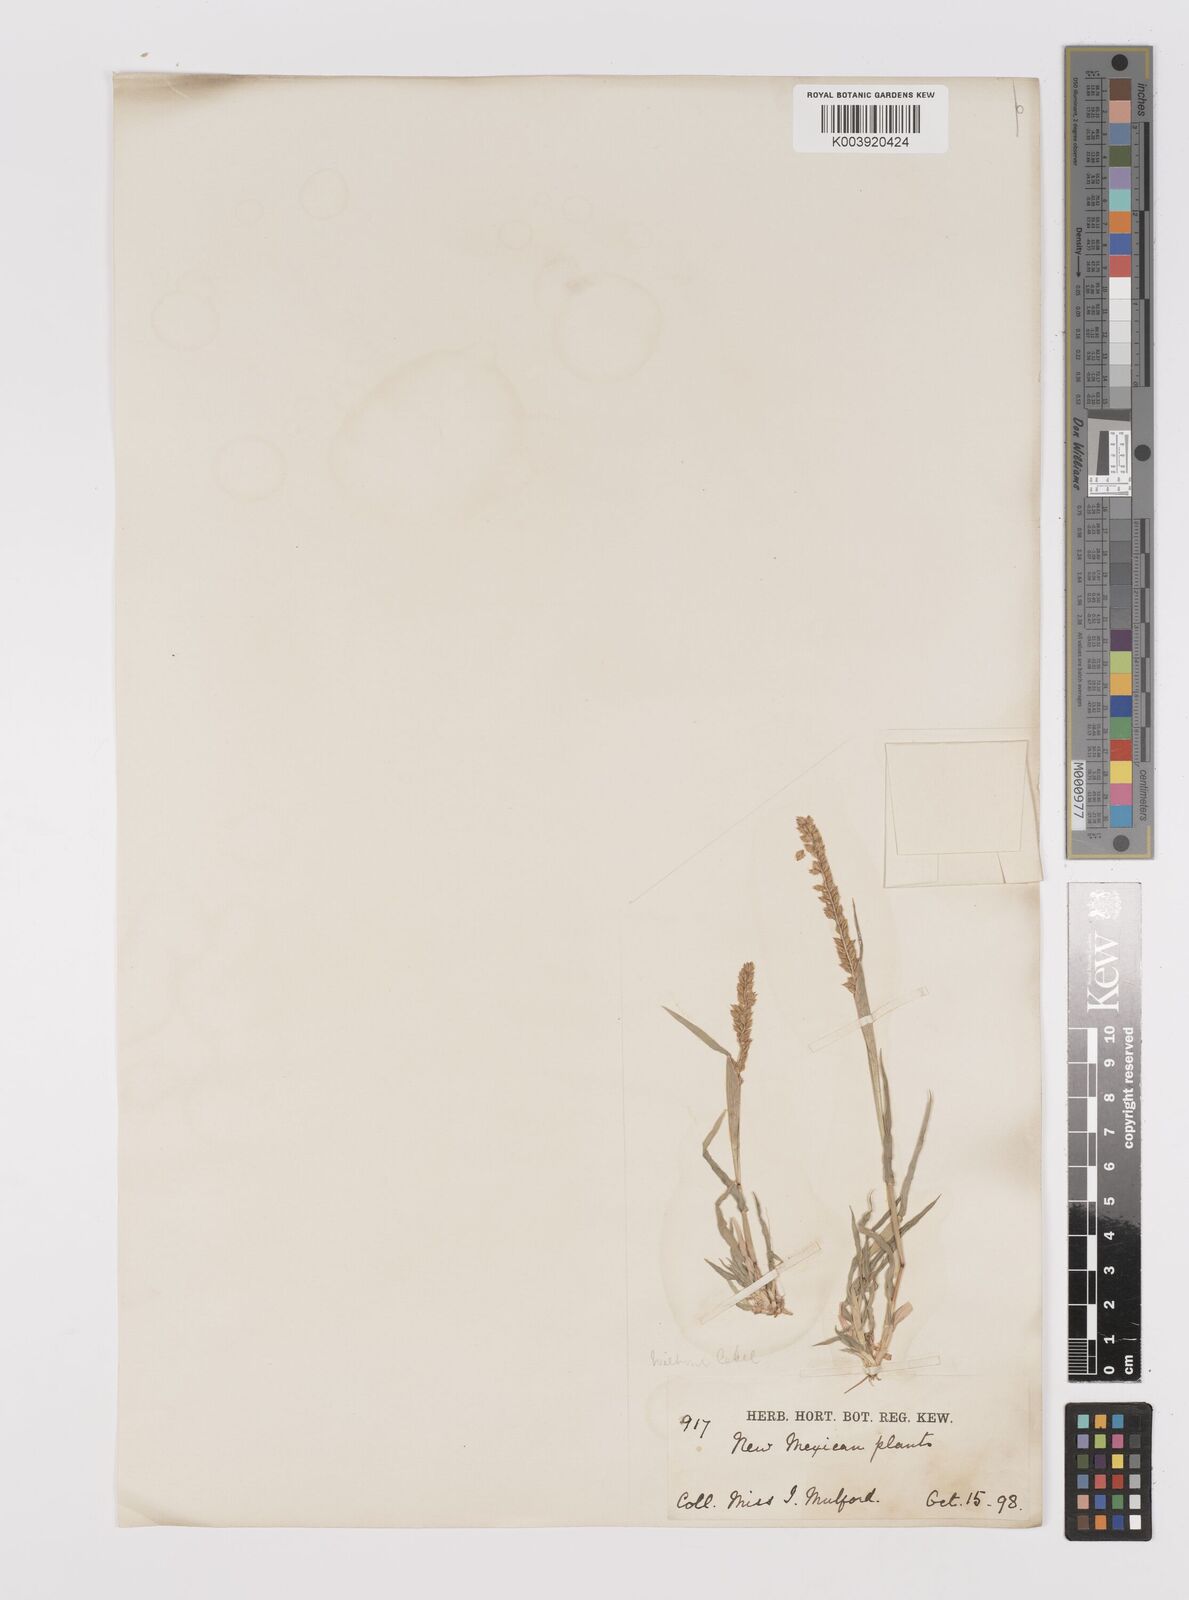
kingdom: Plantae
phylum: Tracheophyta
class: Liliopsida
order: Poales
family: Poaceae
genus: Tragus
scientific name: Tragus berteronianus
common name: African bur-grass
